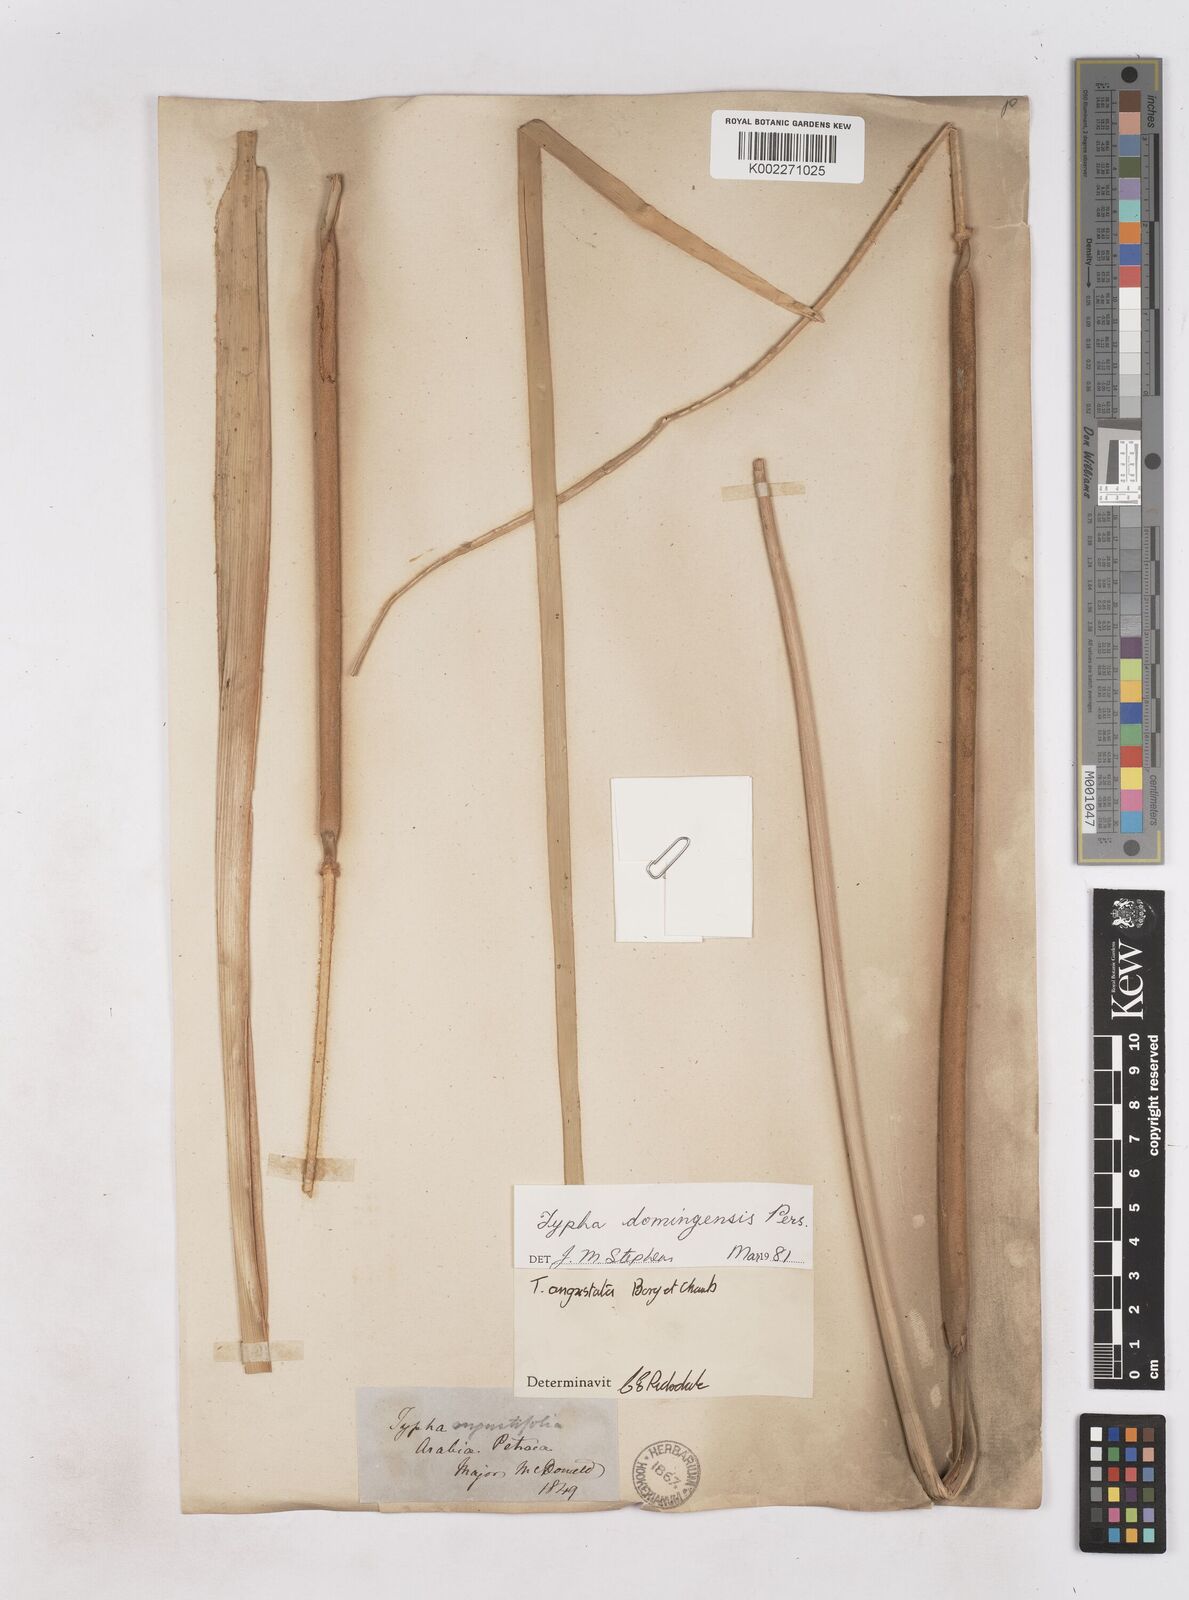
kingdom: Plantae
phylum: Tracheophyta
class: Liliopsida
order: Poales
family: Typhaceae
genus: Typha
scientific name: Typha domingensis
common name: Southern cattail
